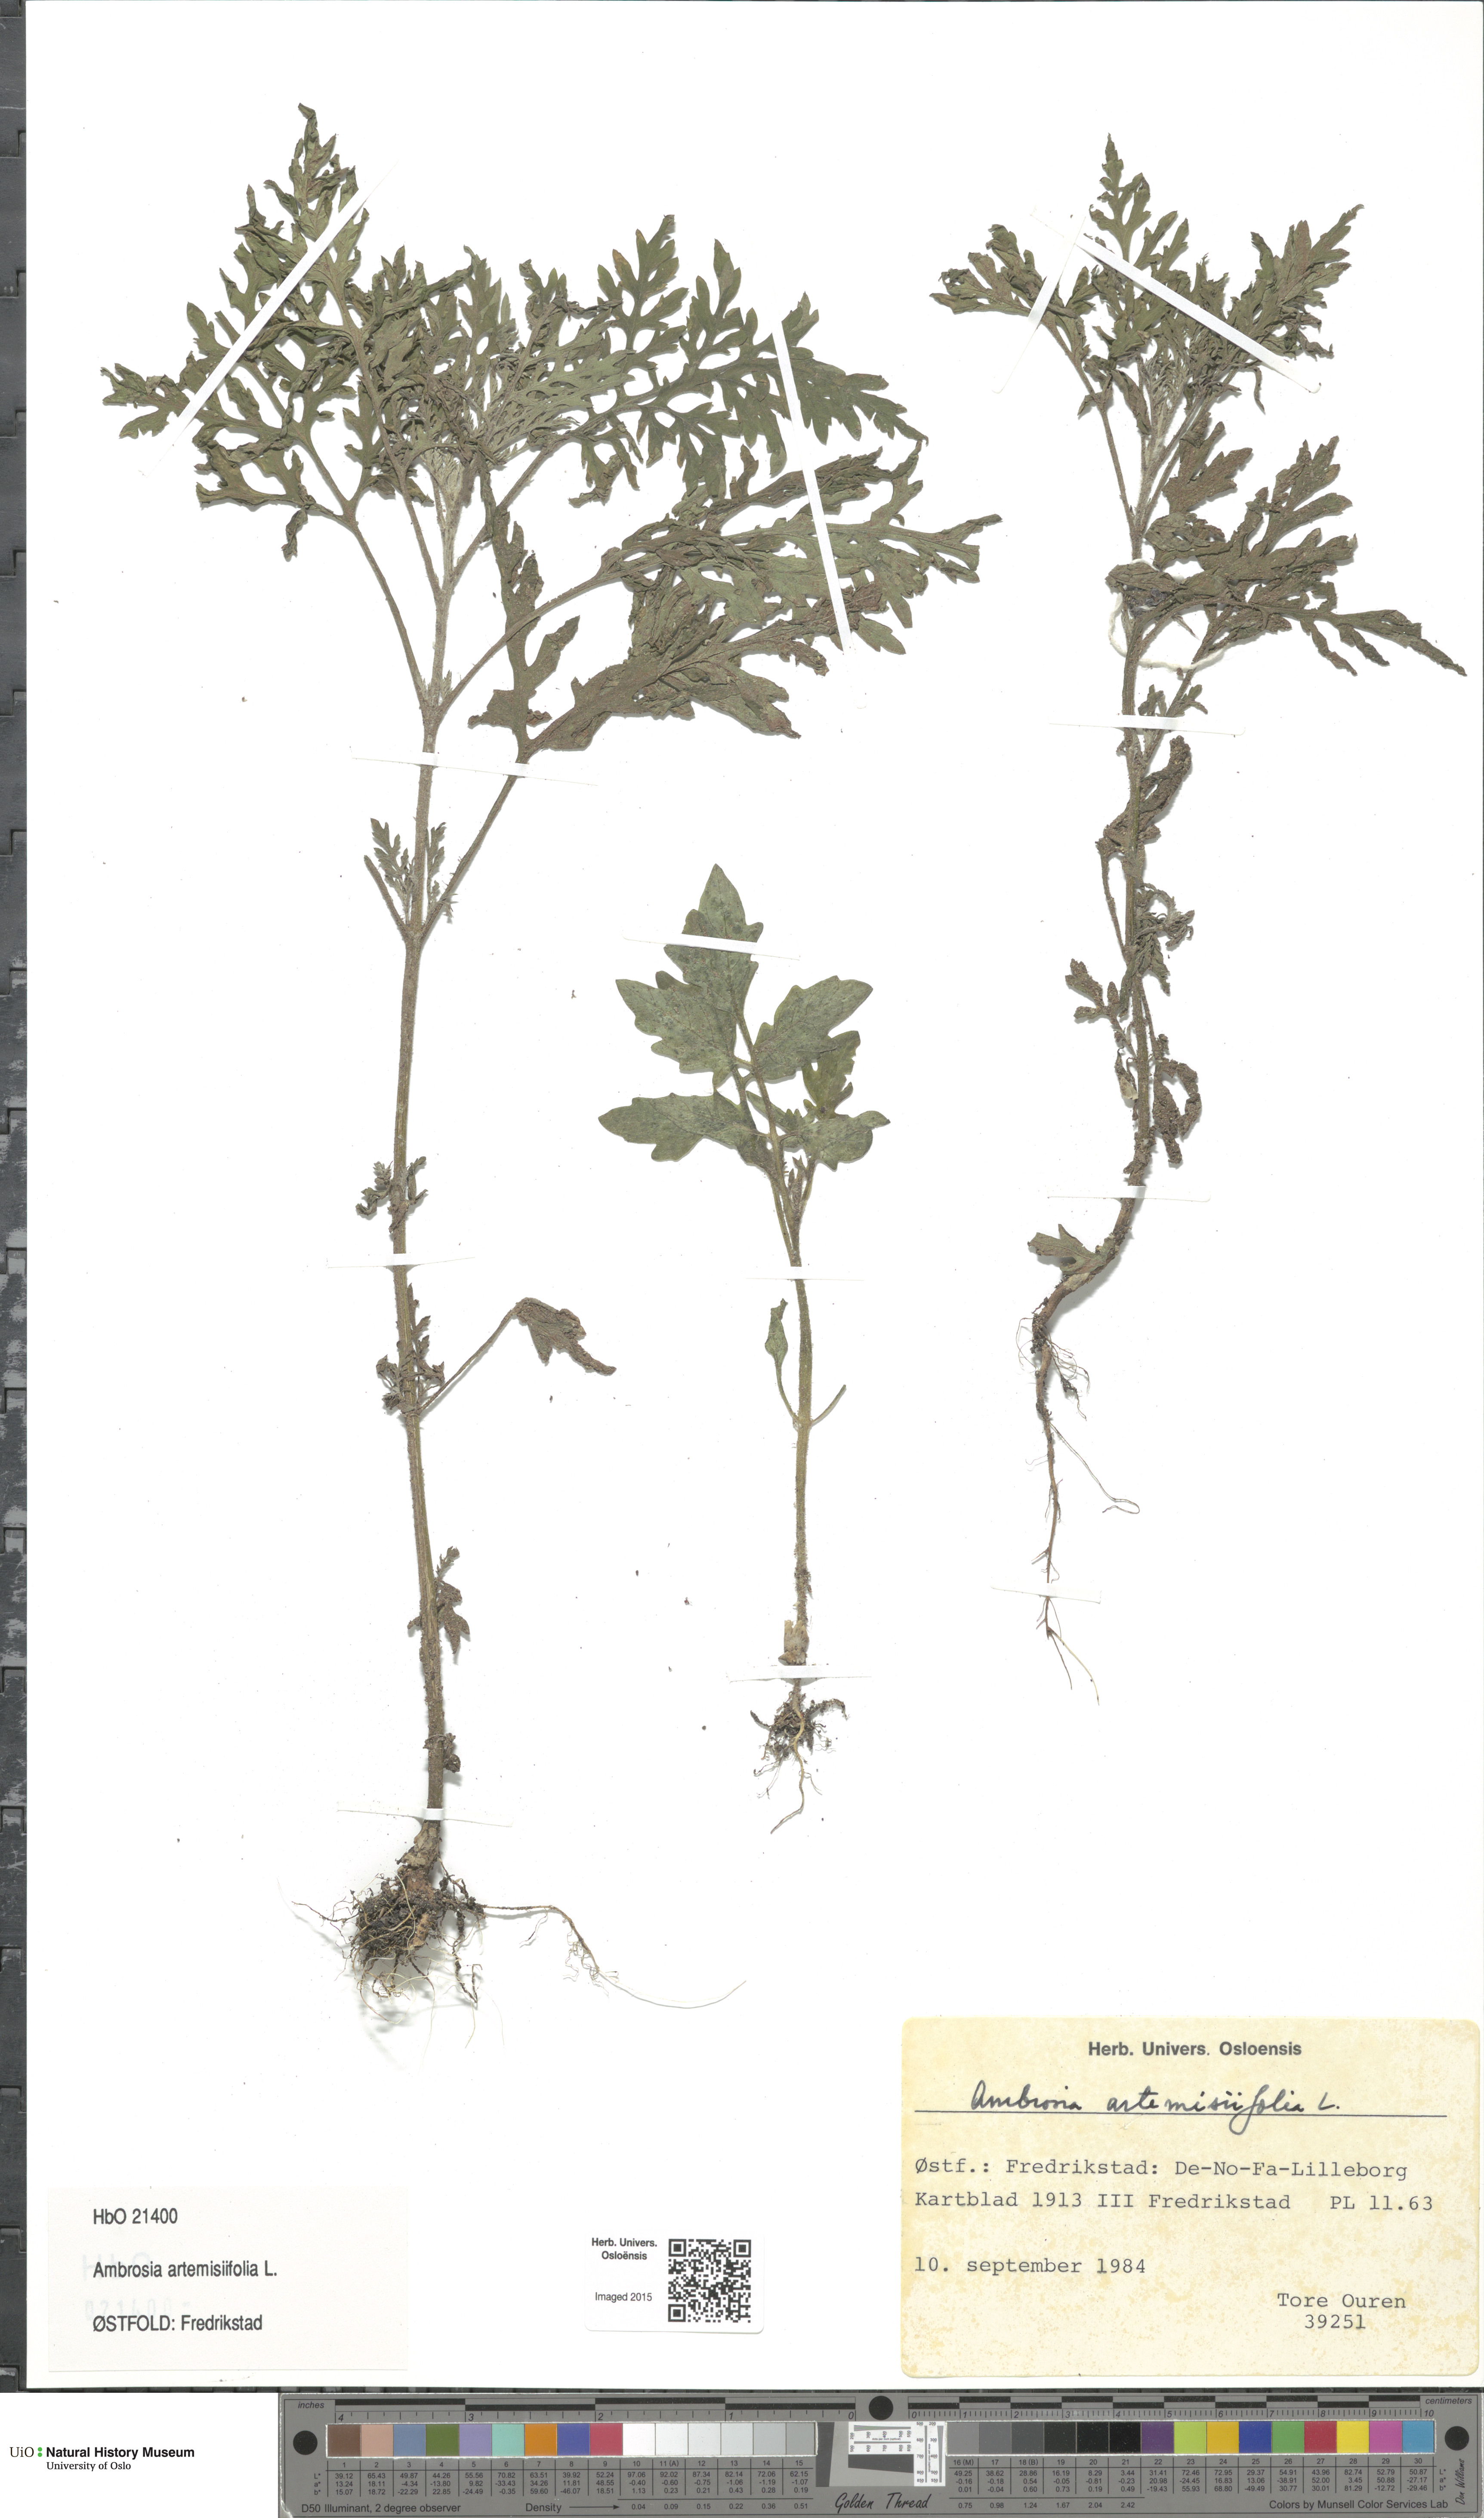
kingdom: Plantae
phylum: Tracheophyta
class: Magnoliopsida
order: Asterales
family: Asteraceae
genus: Ambrosia
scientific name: Ambrosia artemisiifolia
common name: Annual ragweed
